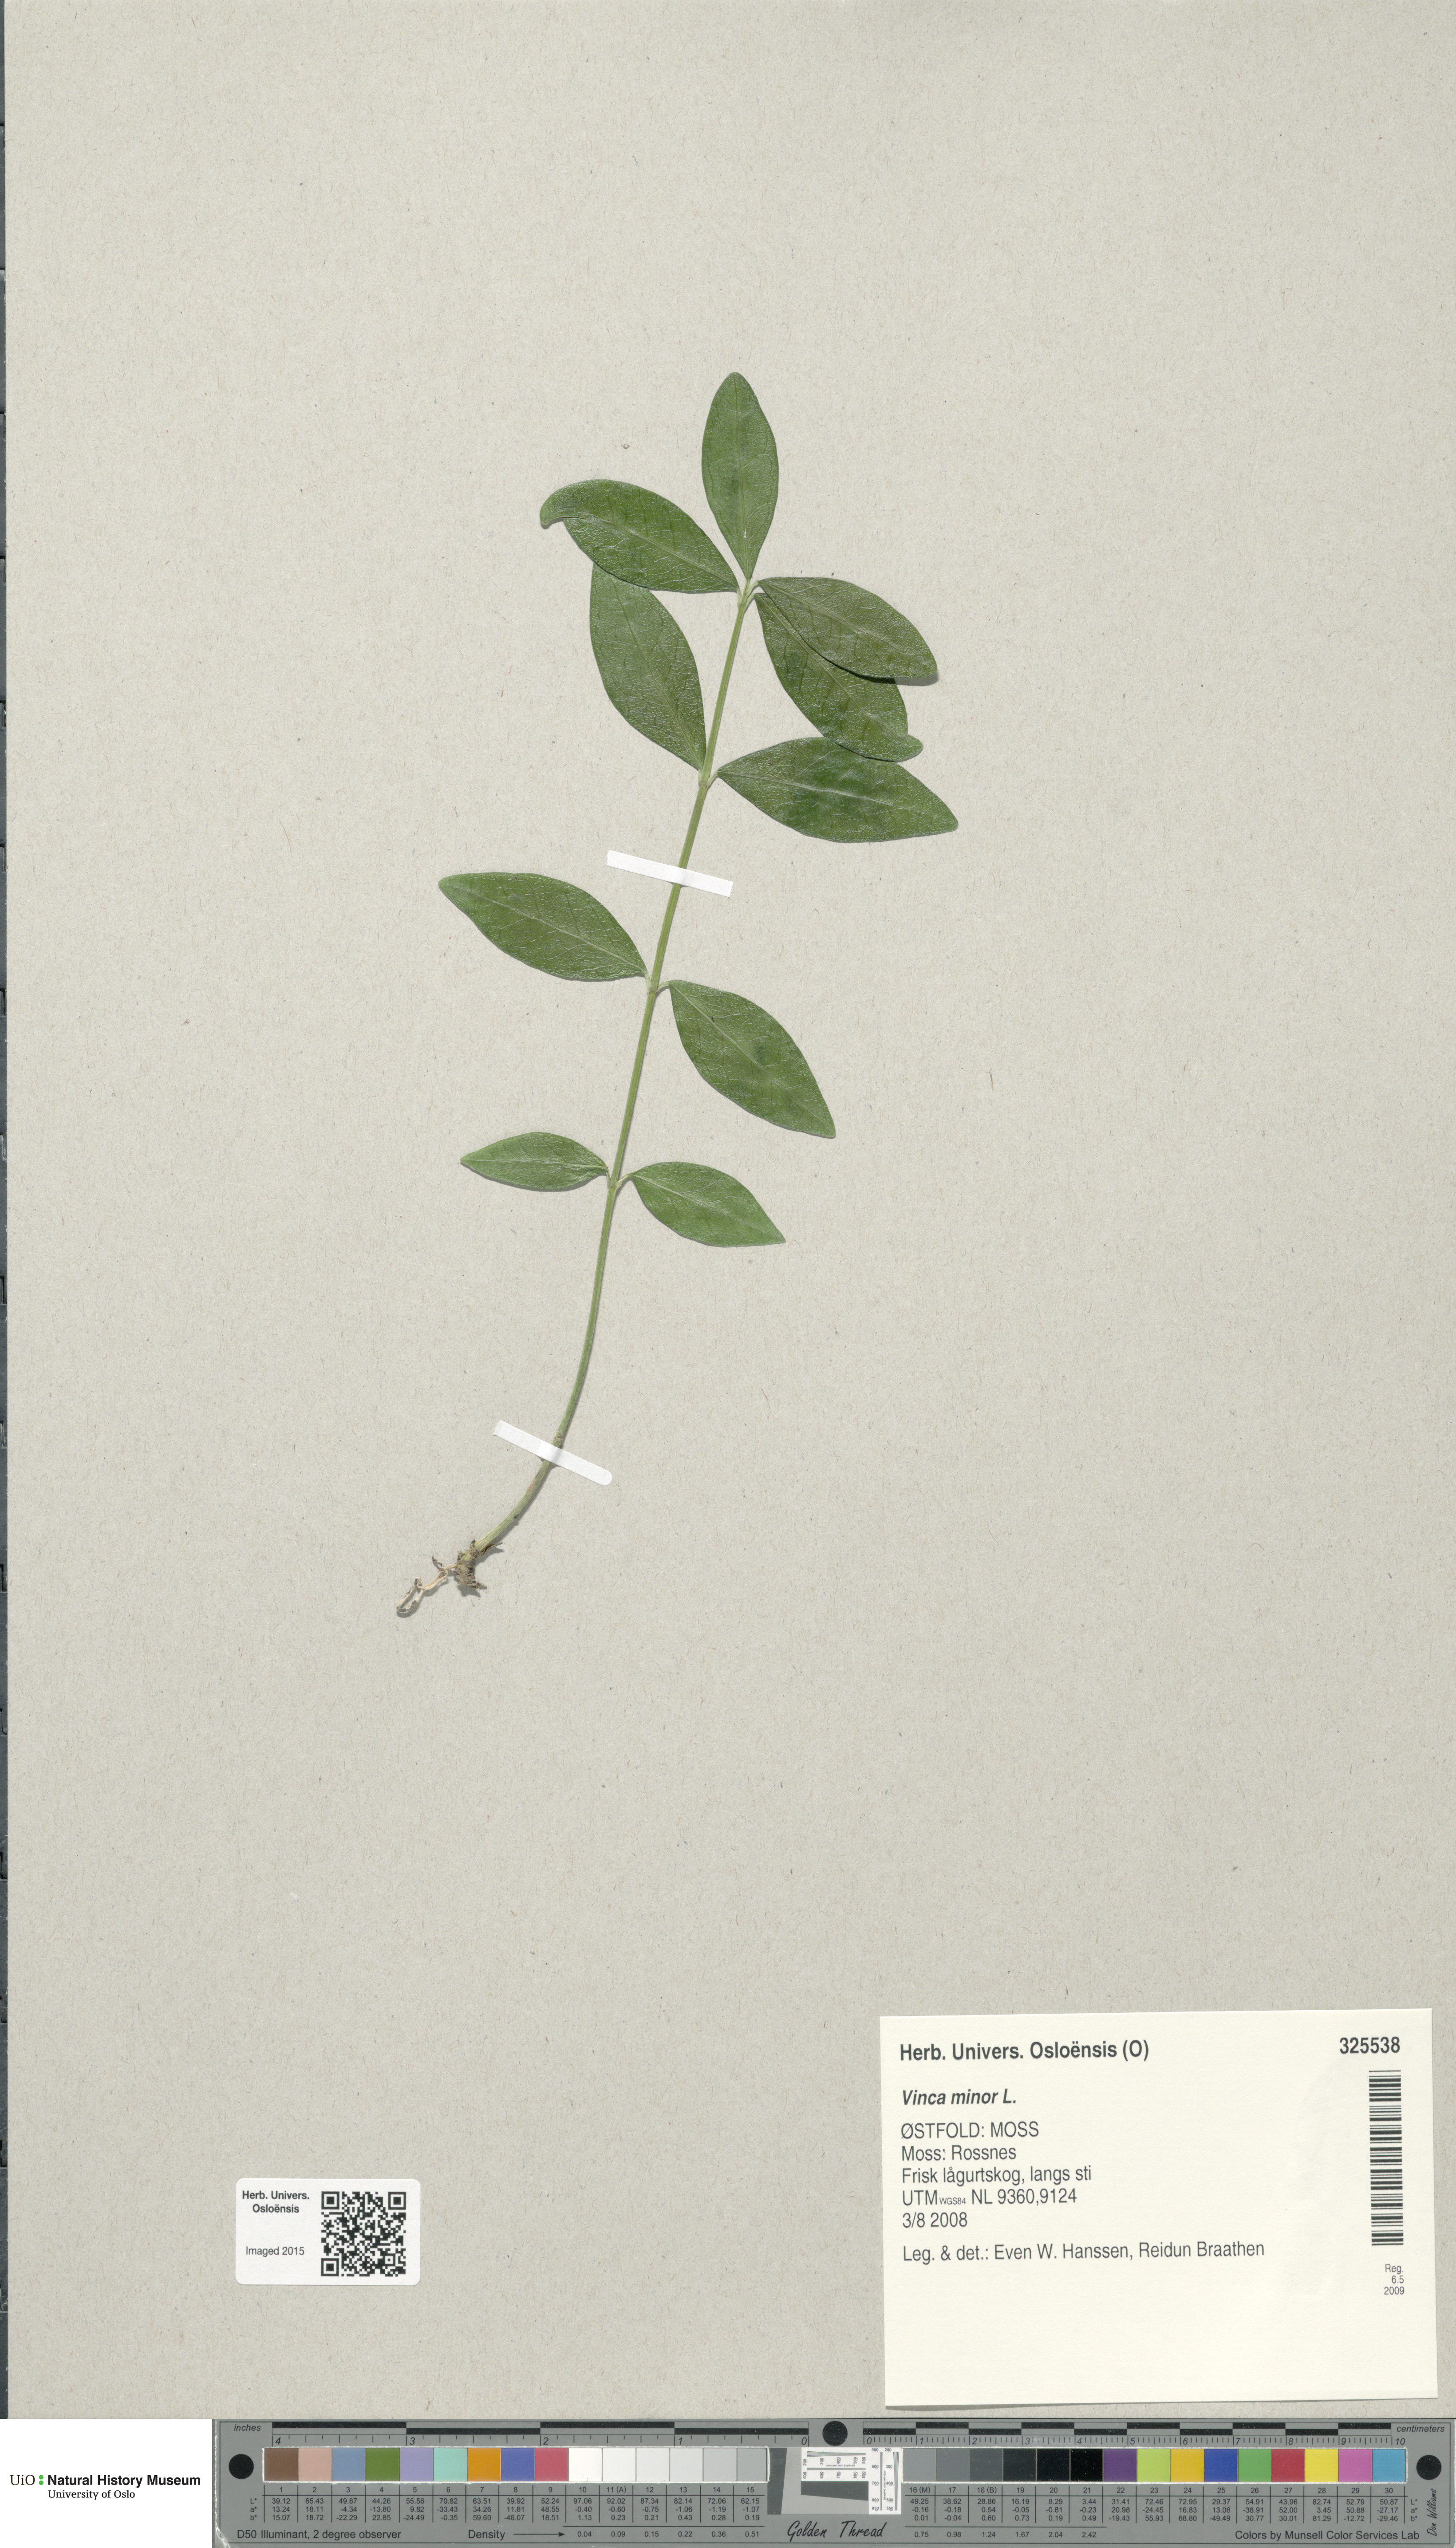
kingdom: Plantae
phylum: Tracheophyta
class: Magnoliopsida
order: Gentianales
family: Apocynaceae
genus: Vinca
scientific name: Vinca minor
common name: Lesser periwinkle
